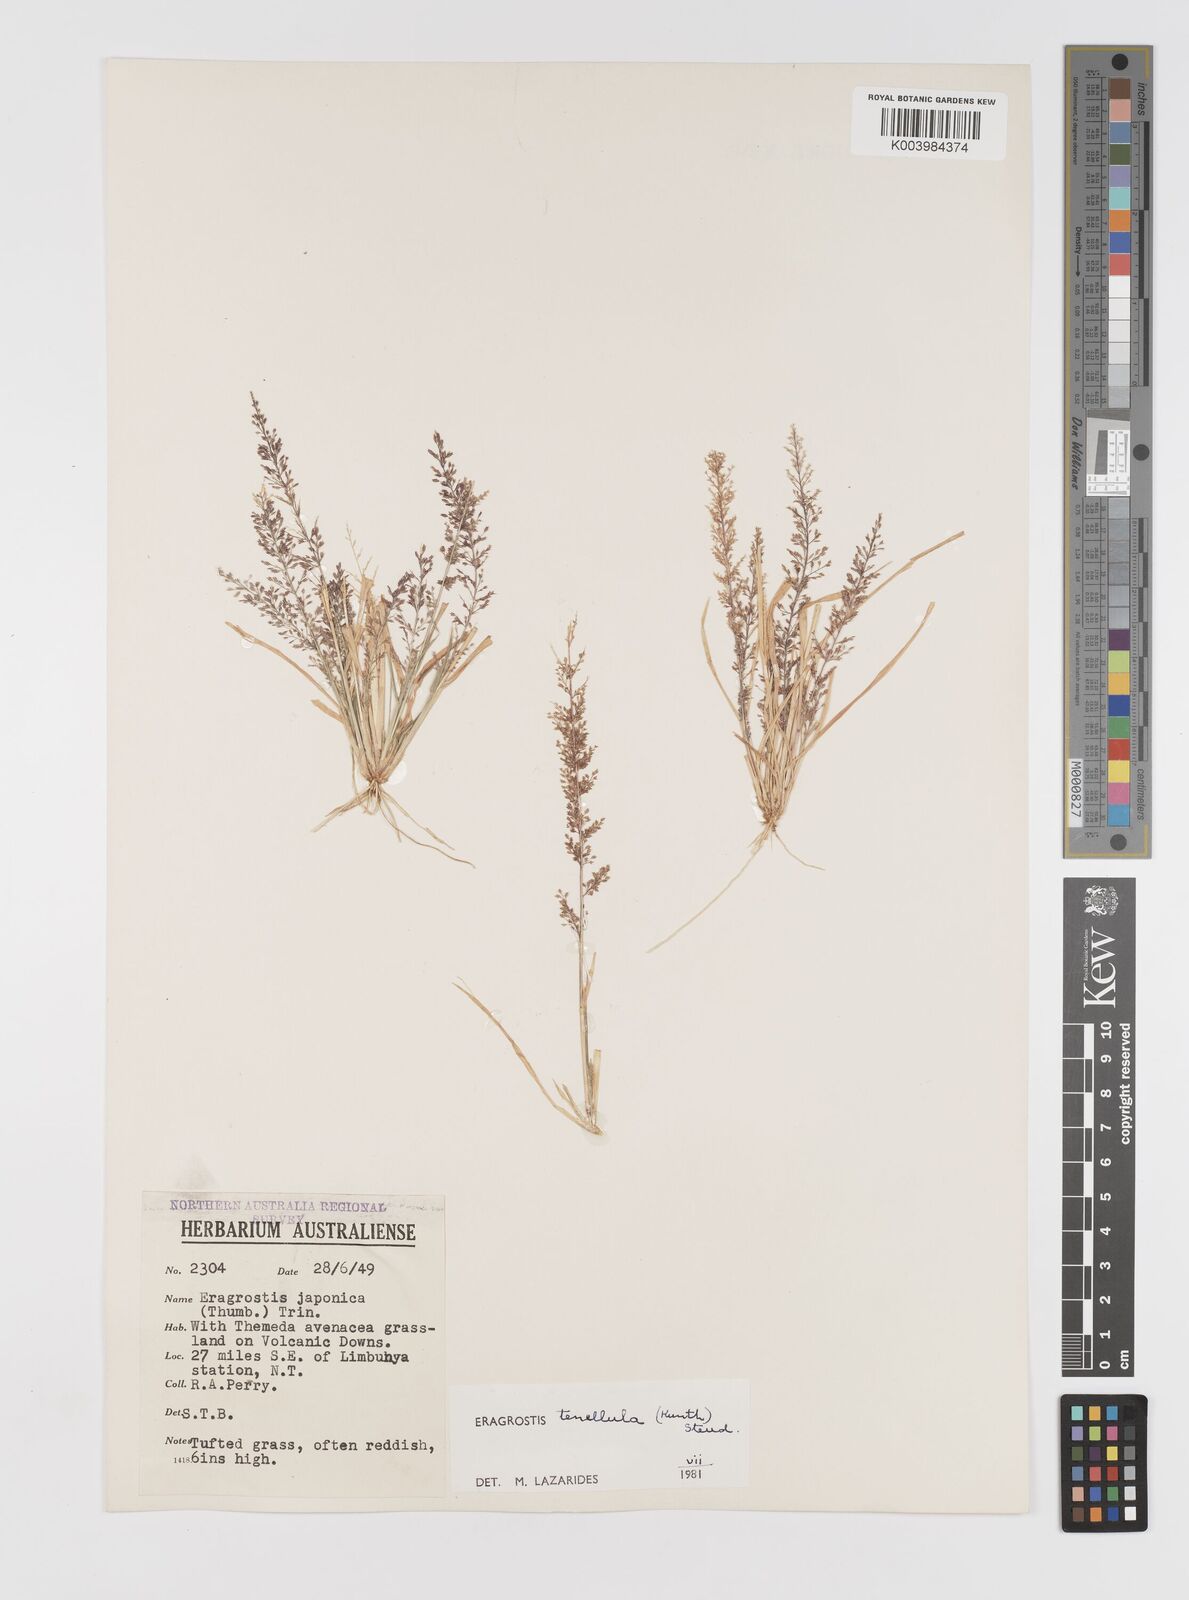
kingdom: Plantae
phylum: Tracheophyta
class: Liliopsida
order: Poales
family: Poaceae
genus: Eragrostis
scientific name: Eragrostis tenellula
